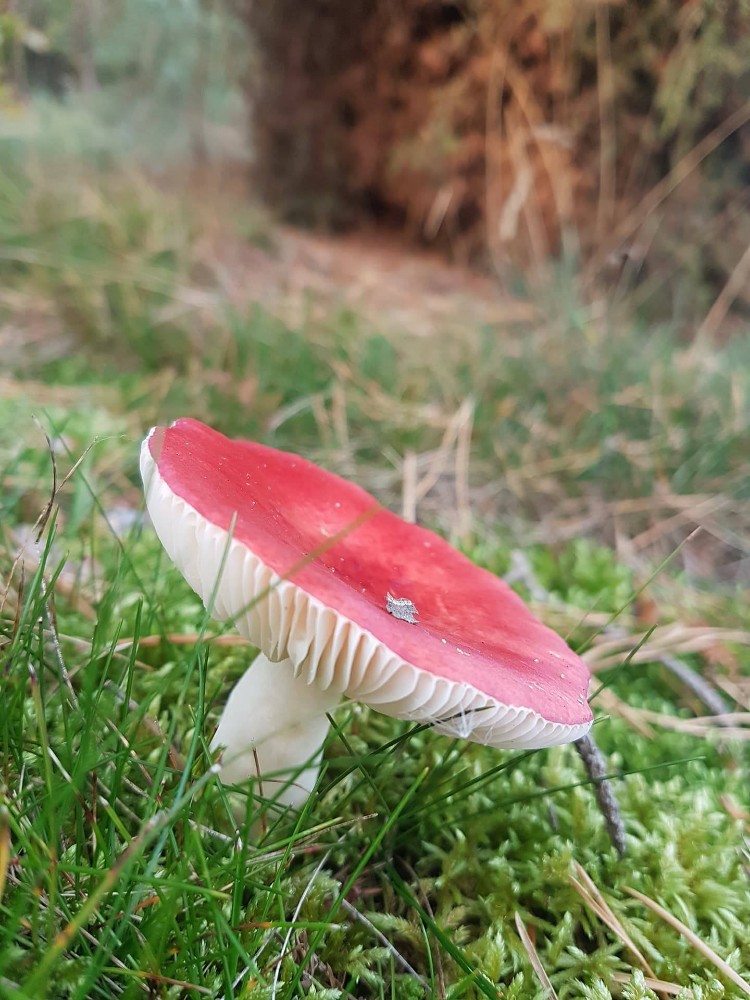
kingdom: Fungi
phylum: Basidiomycota
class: Agaricomycetes
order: Russulales
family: Russulaceae
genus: Russula
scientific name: Russula emetica
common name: stor gift-skørhat
